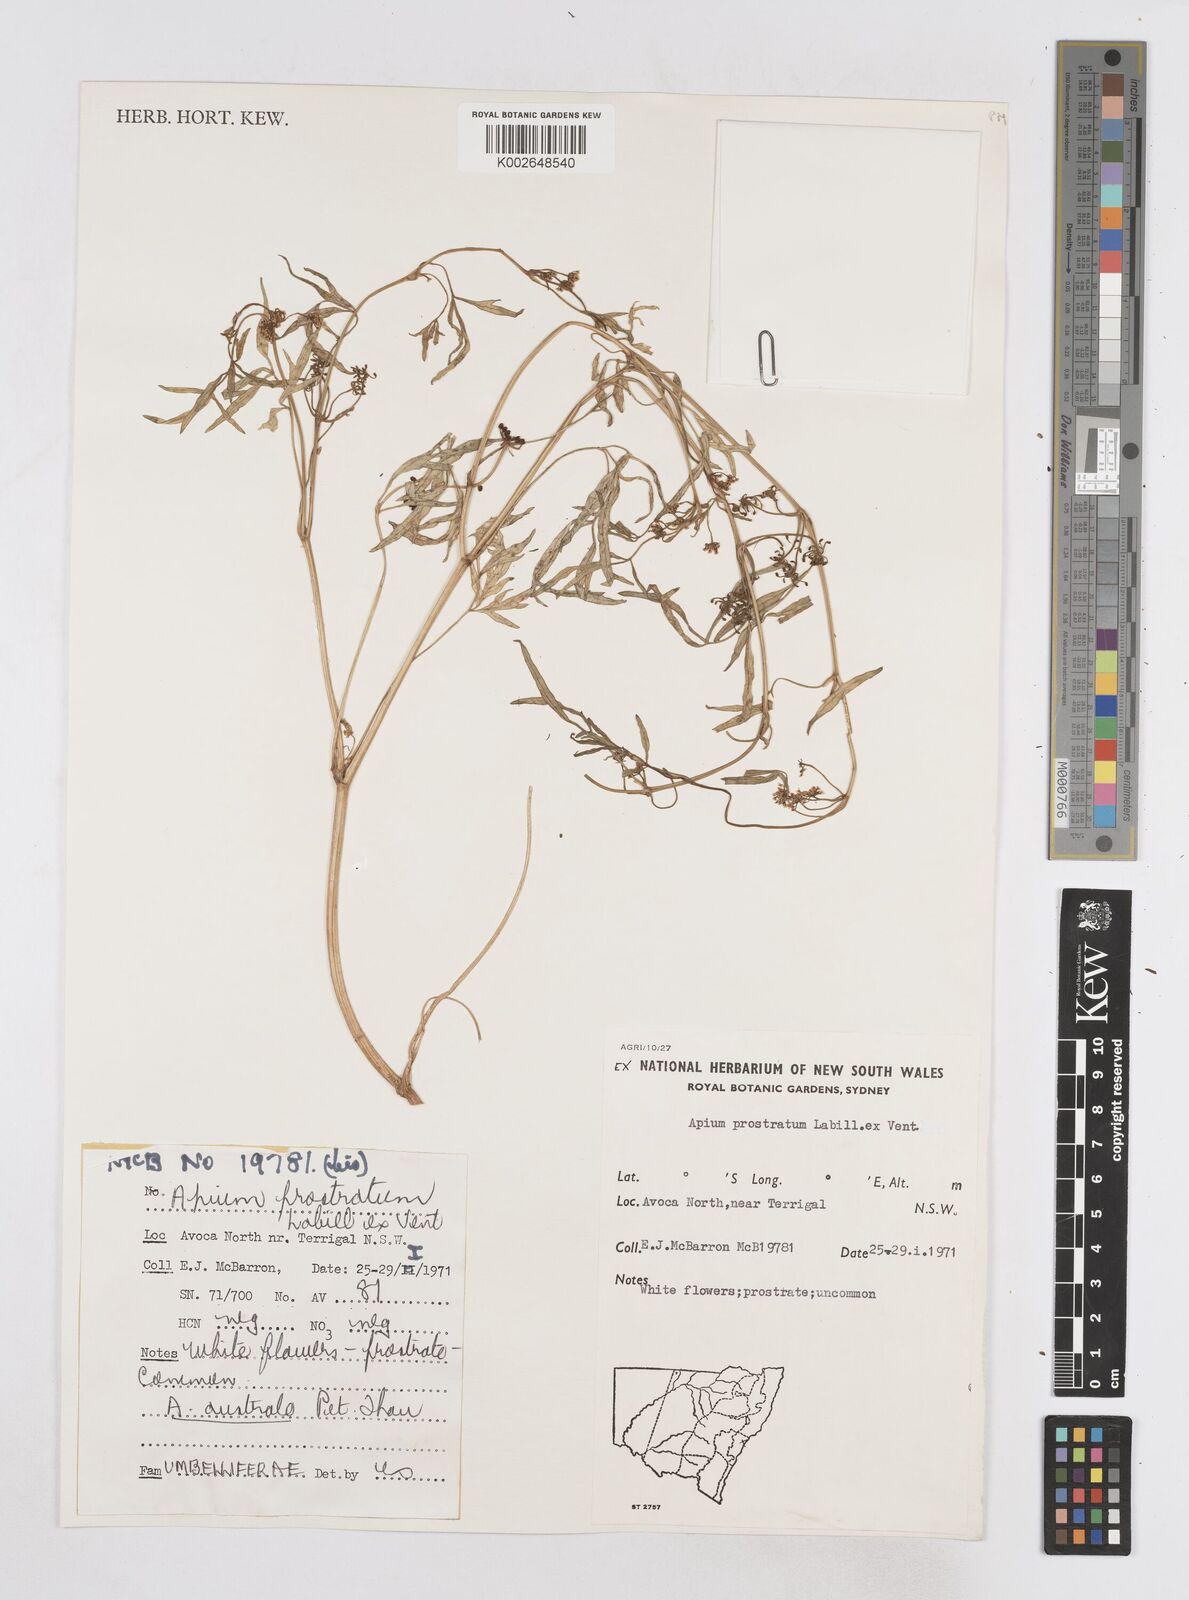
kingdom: Plantae
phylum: Tracheophyta
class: Magnoliopsida
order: Apiales
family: Apiaceae
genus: Apium
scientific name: Apium prostratum
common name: Prostrate marshwort
